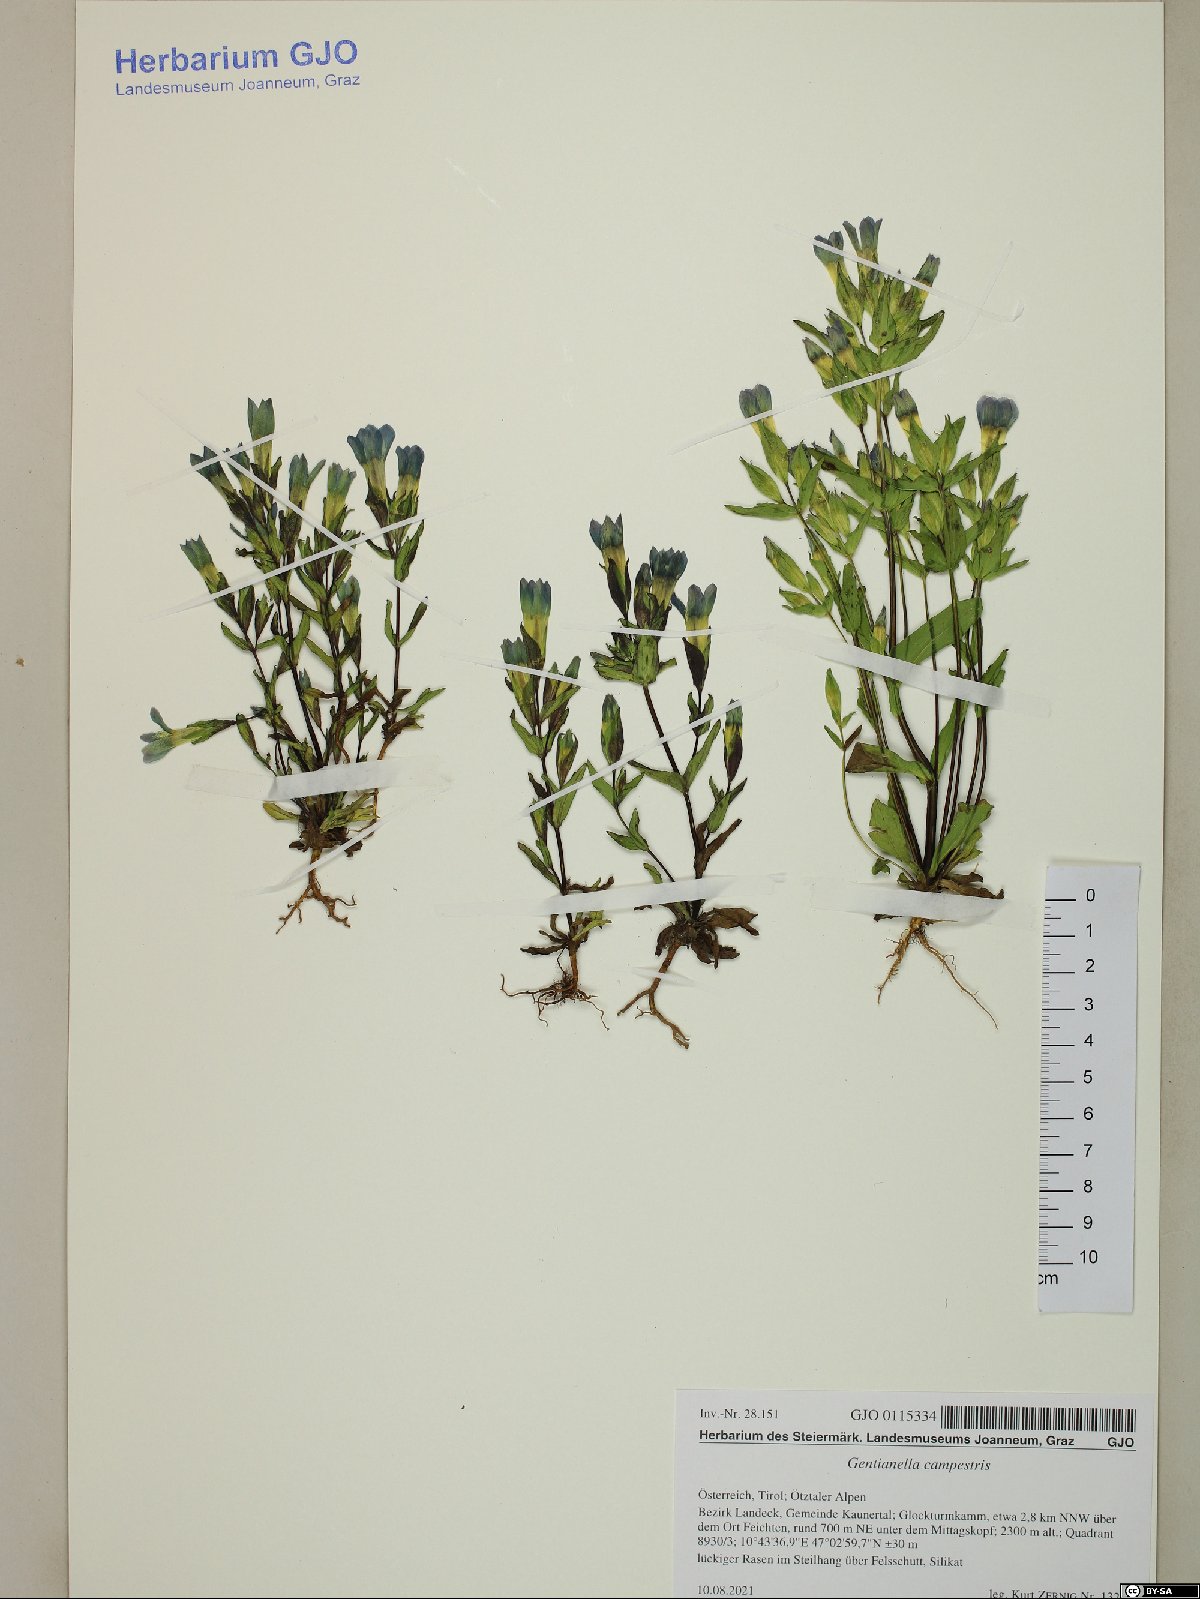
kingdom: Plantae
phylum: Tracheophyta
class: Magnoliopsida
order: Gentianales
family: Gentianaceae
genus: Gentianella
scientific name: Gentianella campestris
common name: Field gentian
